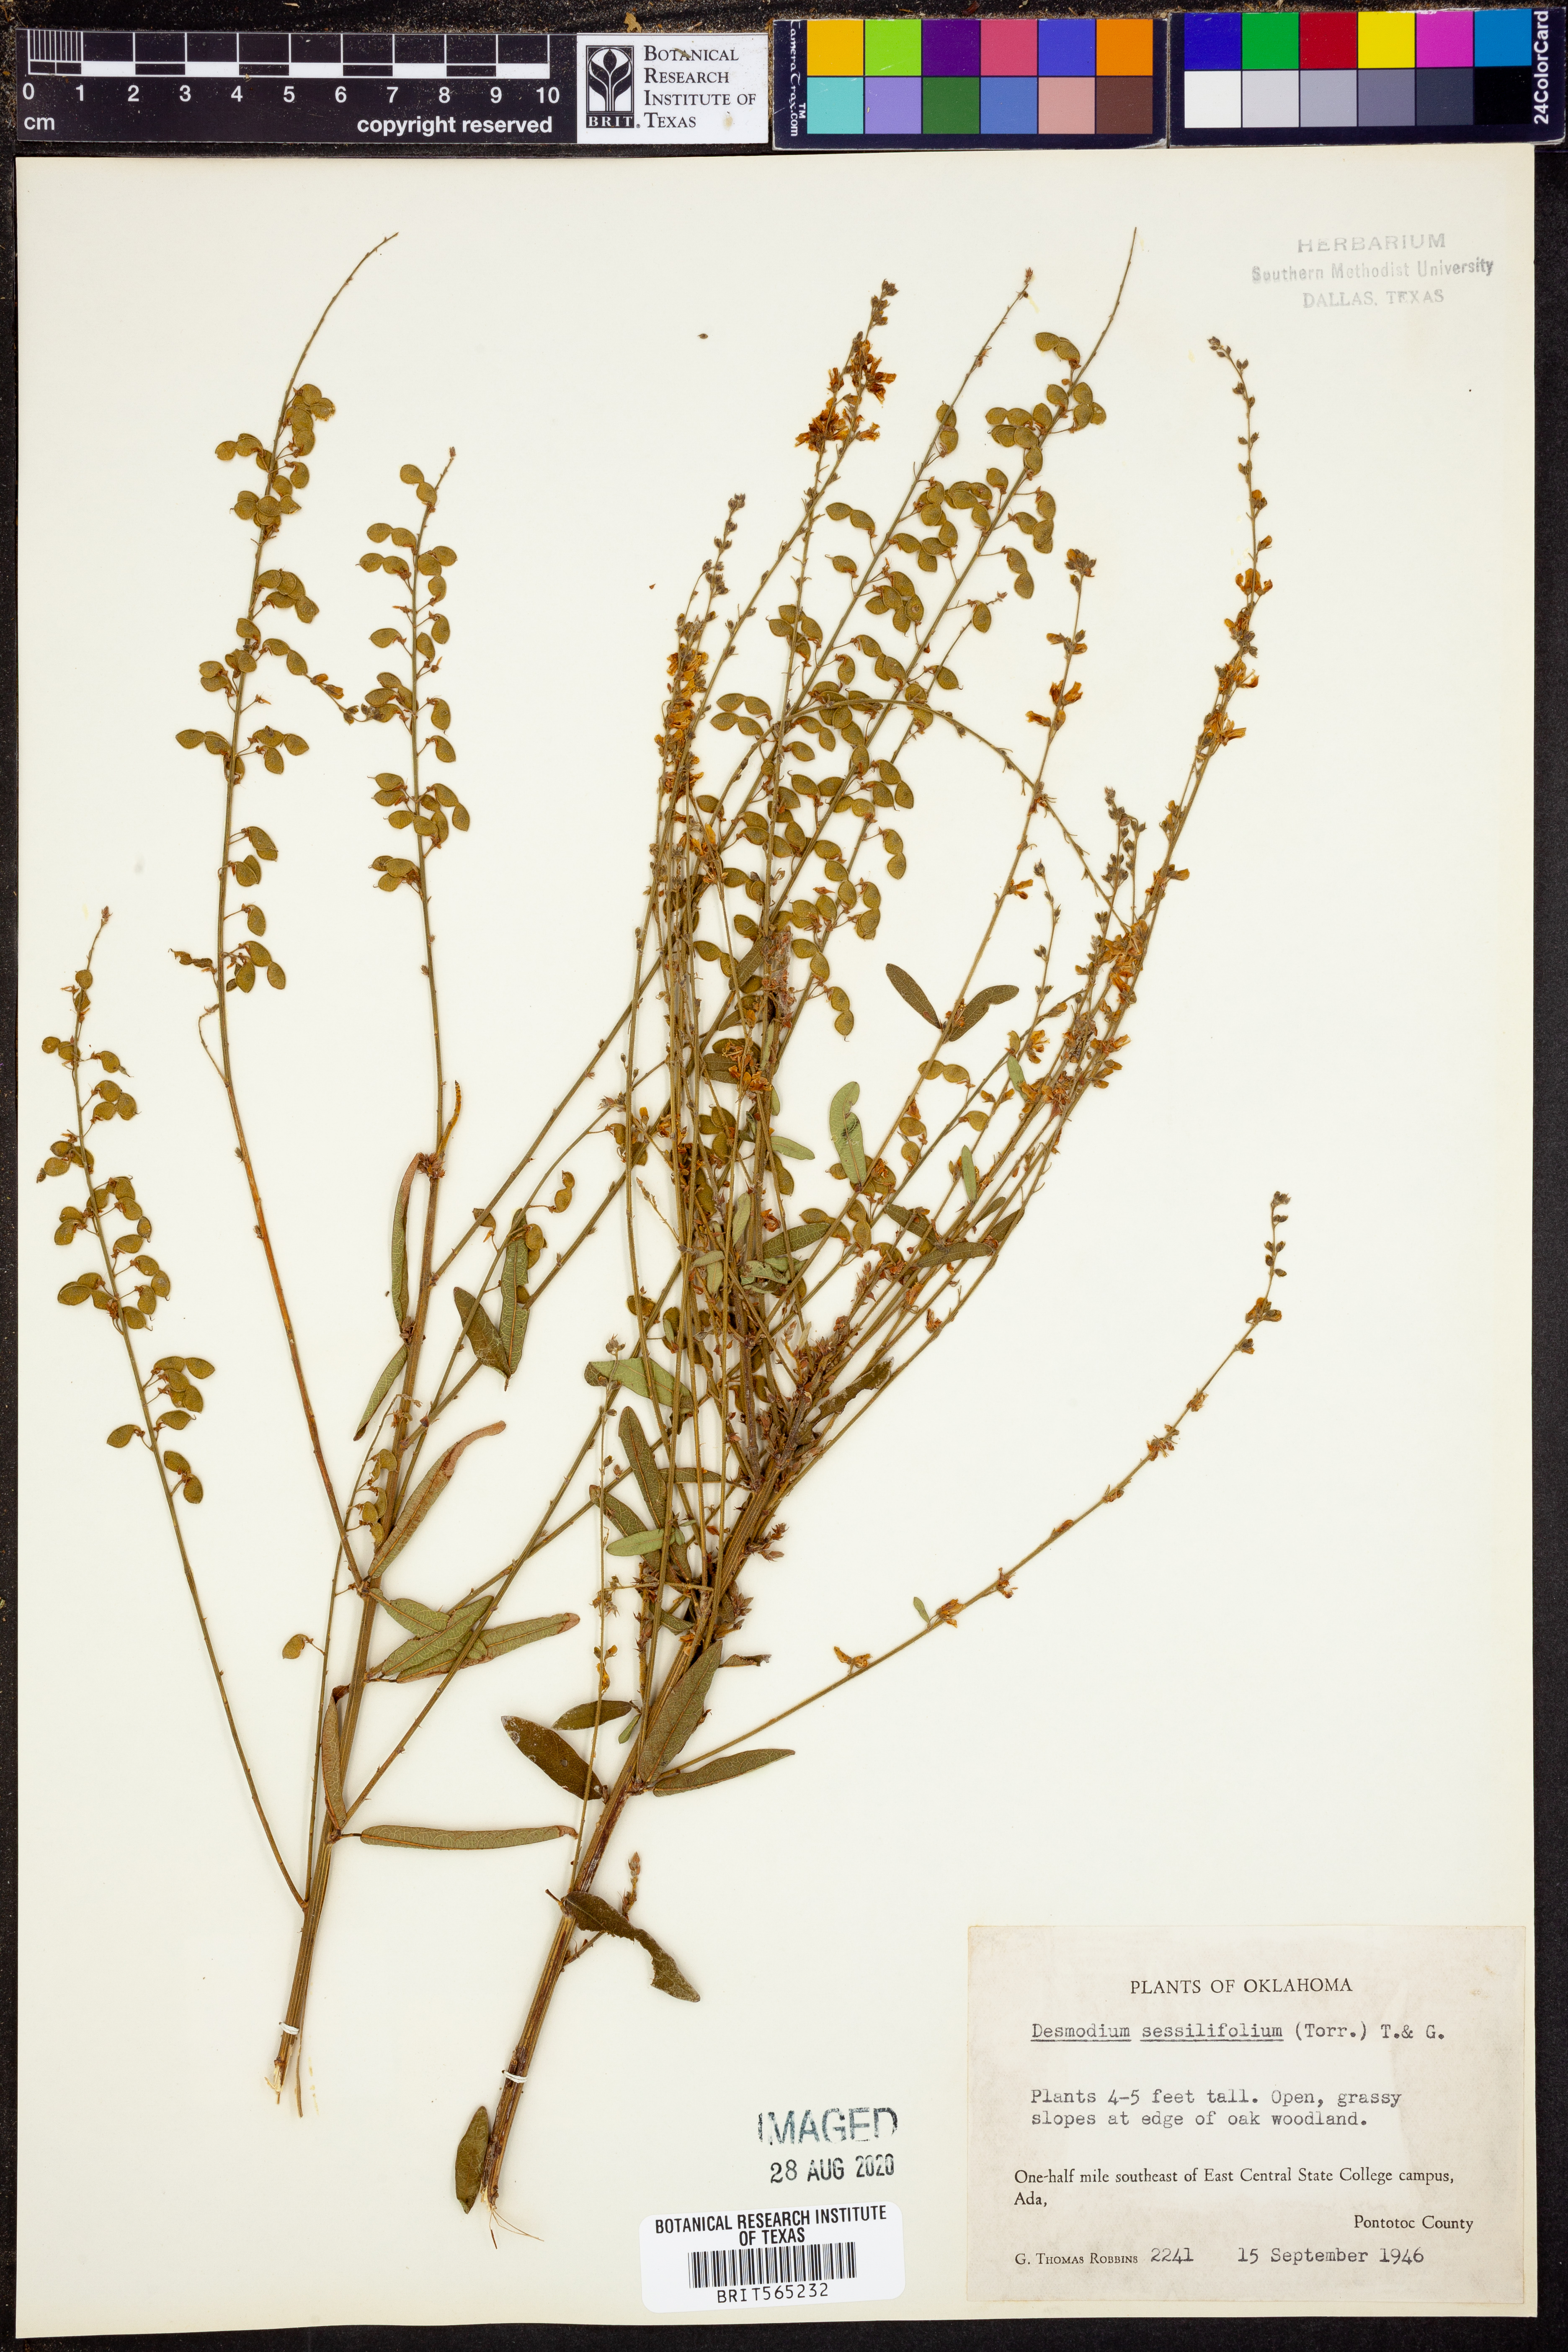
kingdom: Plantae
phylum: Tracheophyta
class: Magnoliopsida
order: Fabales
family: Fabaceae
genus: Desmodium
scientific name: Desmodium sessilifolium
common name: Sessile tick-clover
